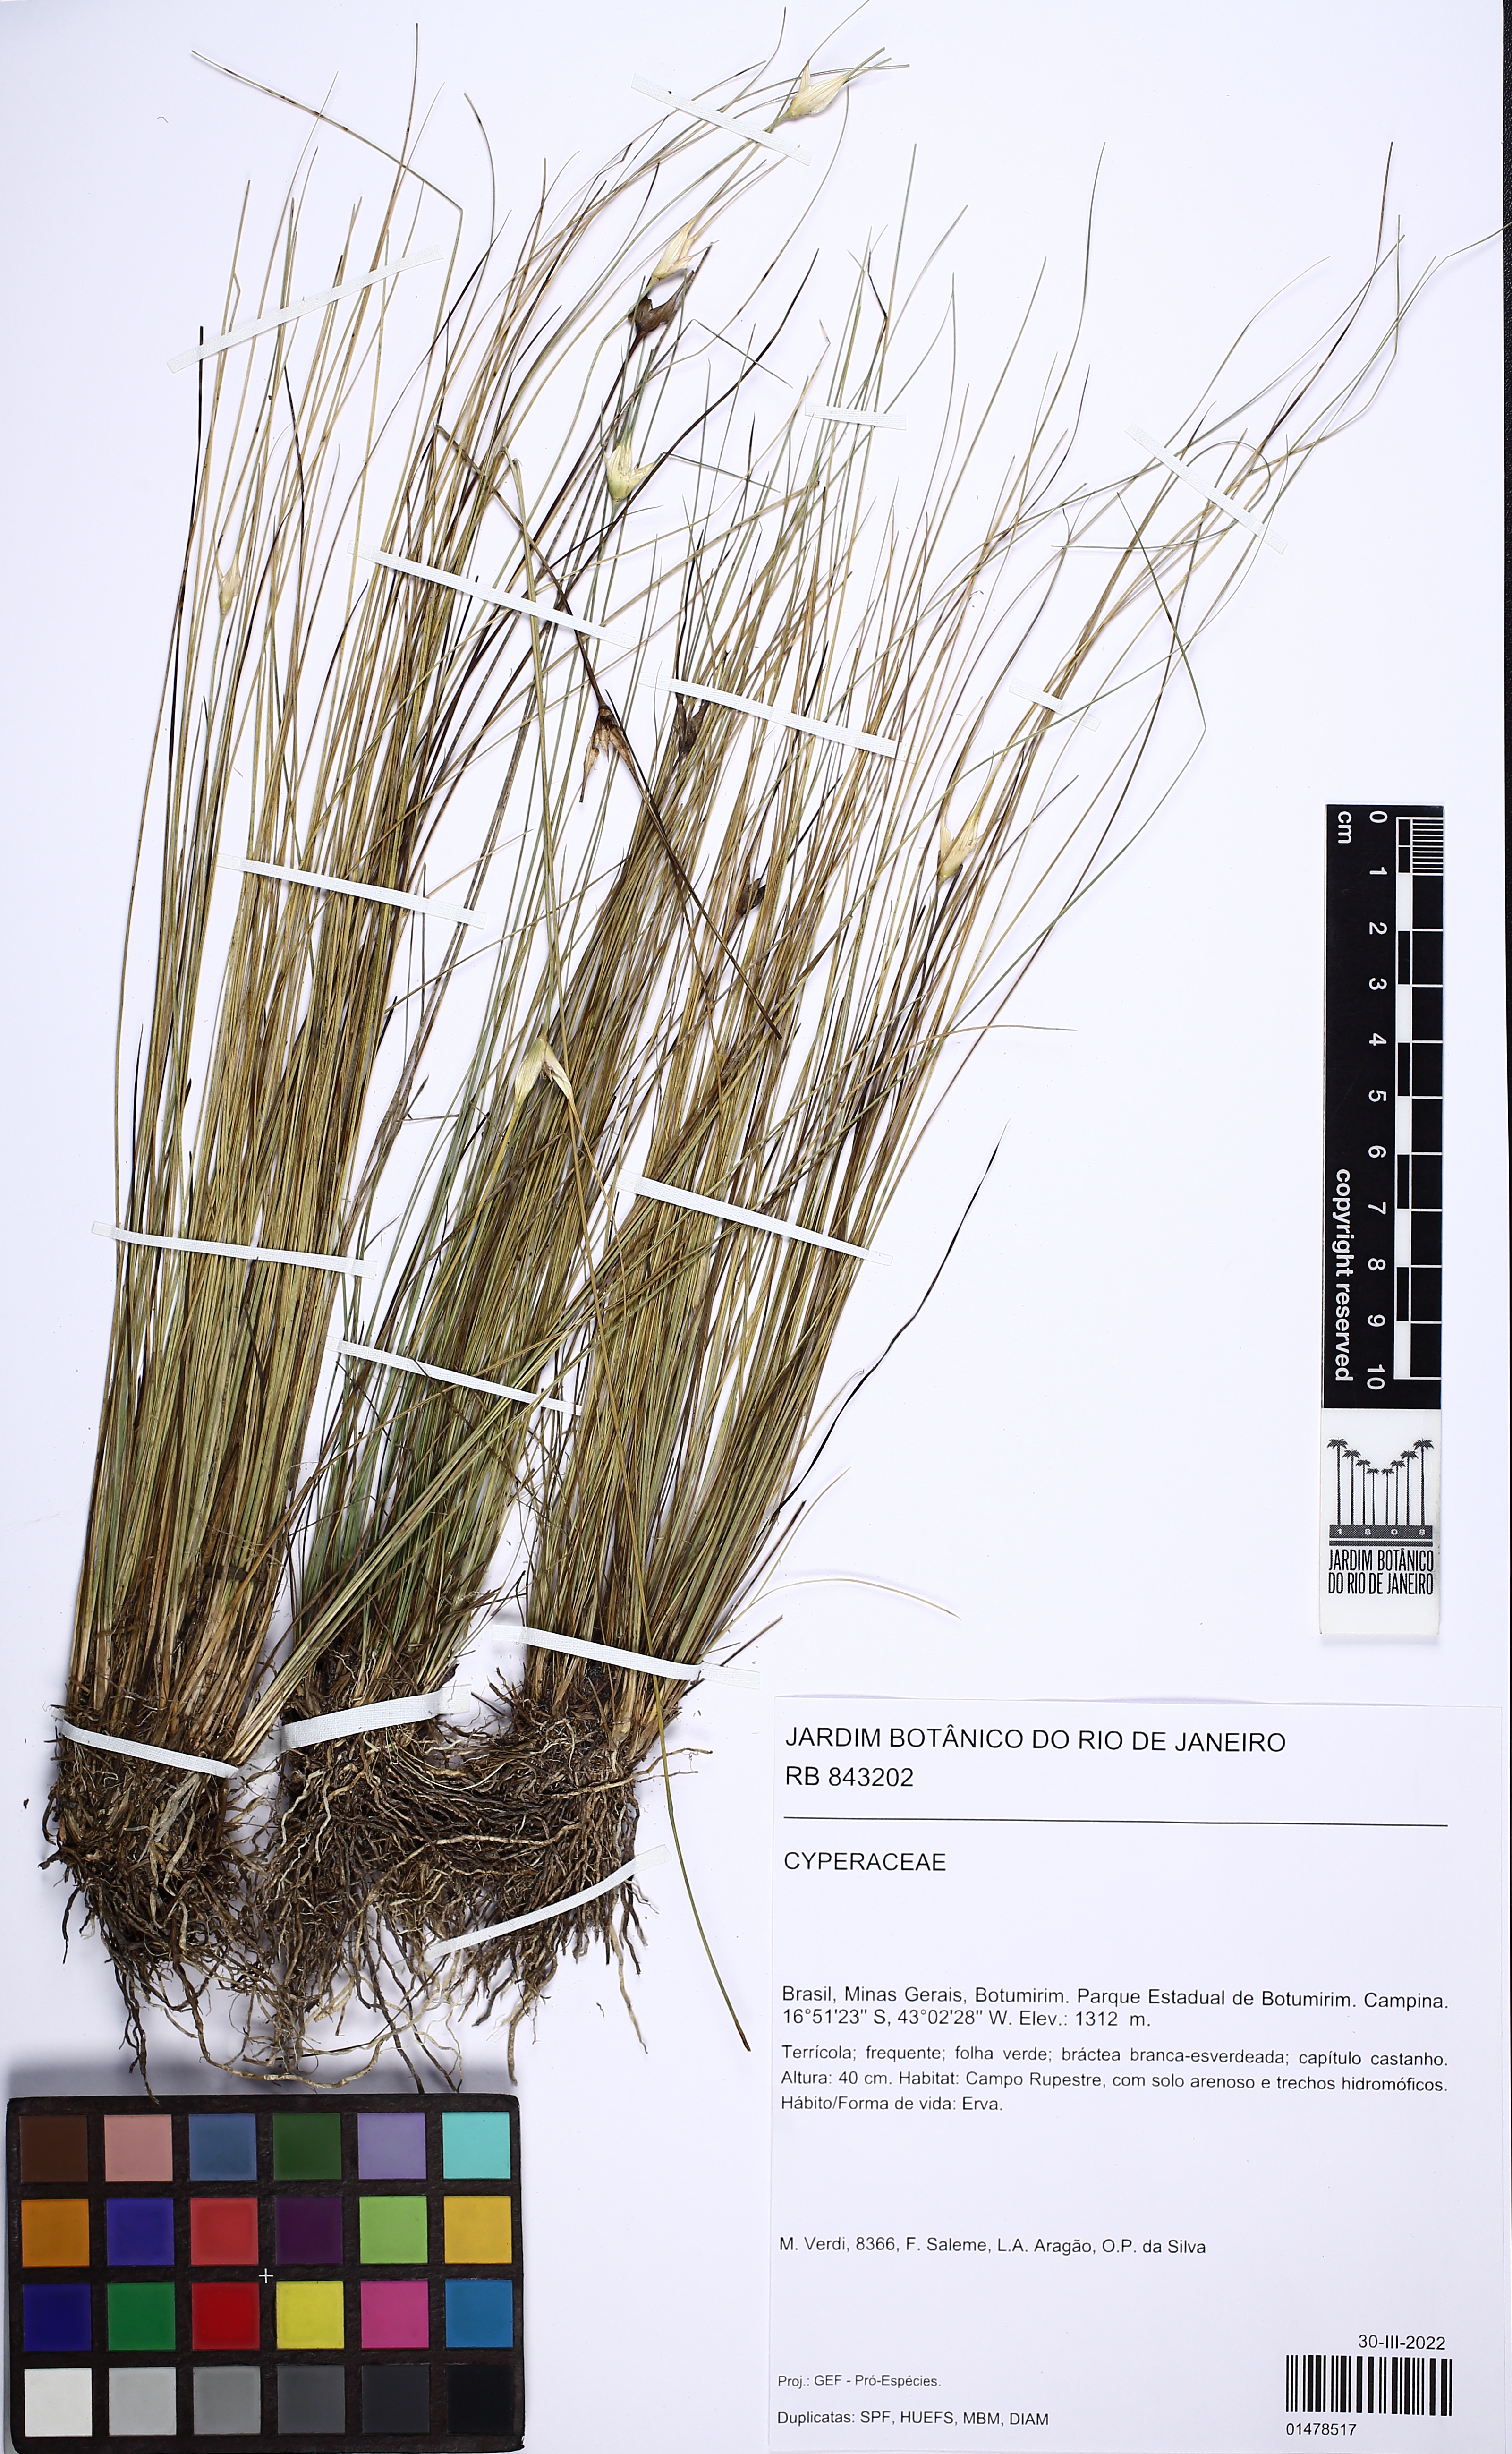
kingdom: Plantae
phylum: Tracheophyta
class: Liliopsida
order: Poales
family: Cyperaceae
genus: Rhynchospora
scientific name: Rhynchospora
